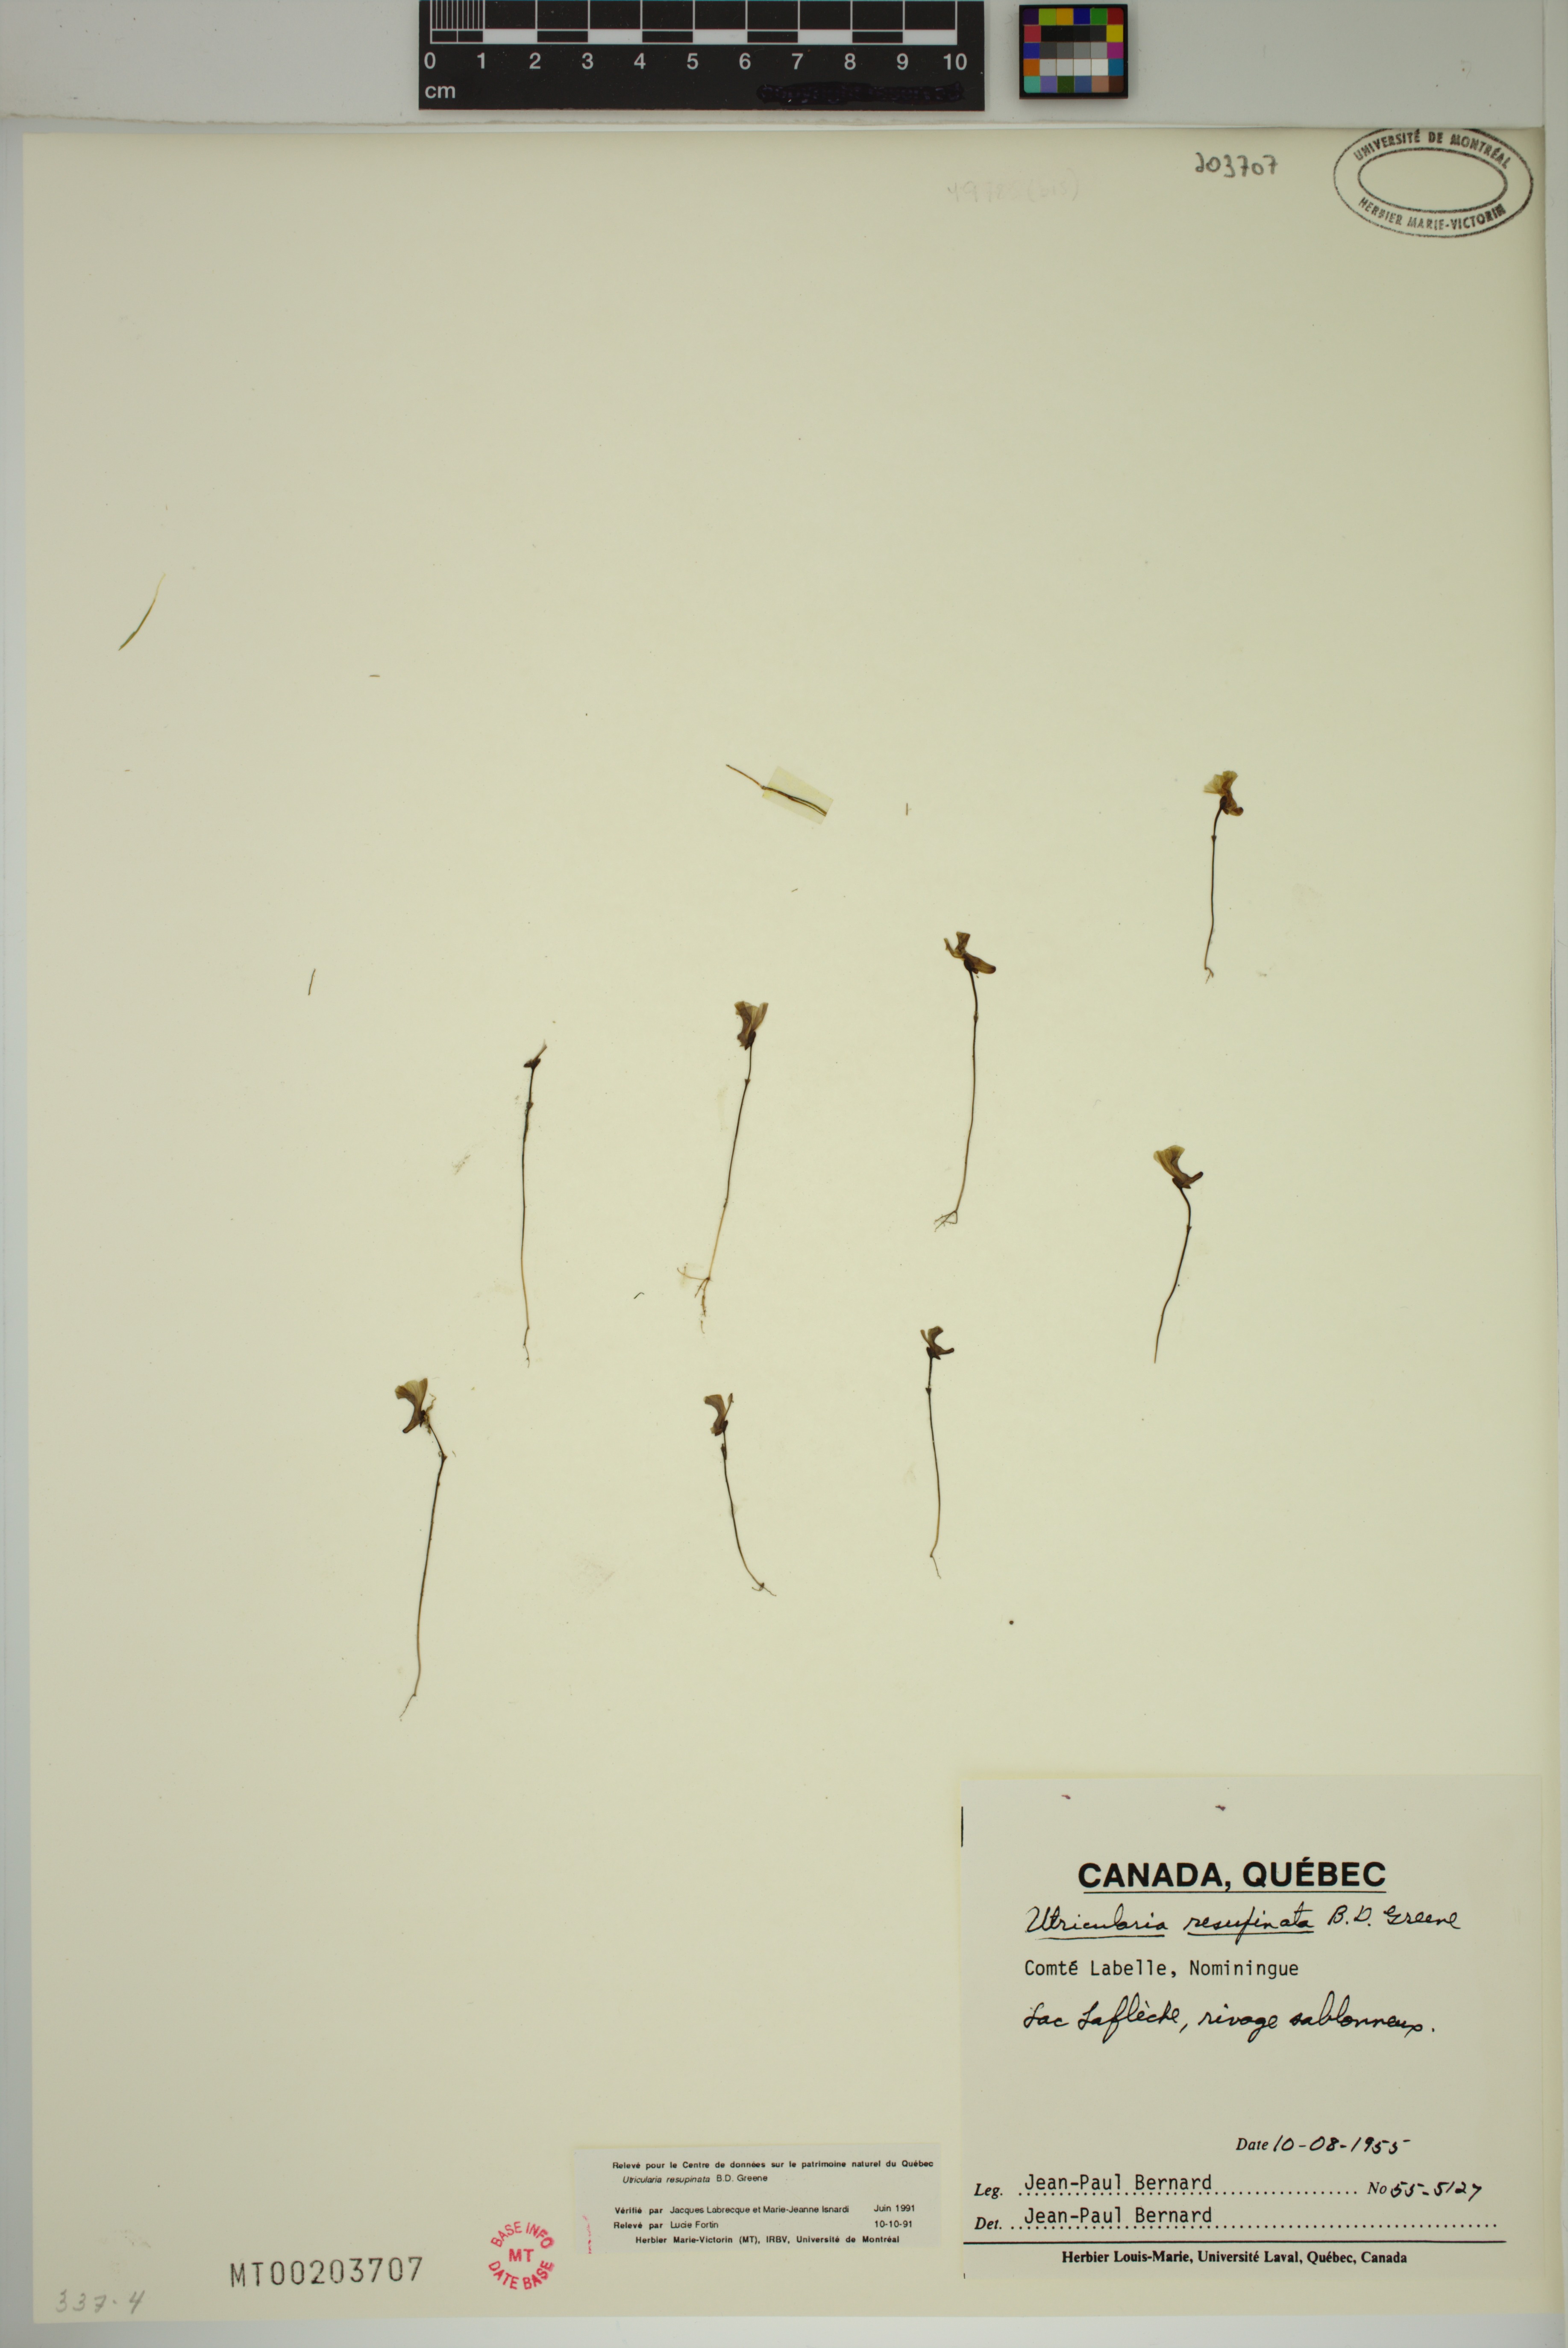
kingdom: Plantae
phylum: Tracheophyta
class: Magnoliopsida
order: Lamiales
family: Lentibulariaceae
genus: Utricularia
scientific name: Utricularia resupinata
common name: Northeastern bladderwort
